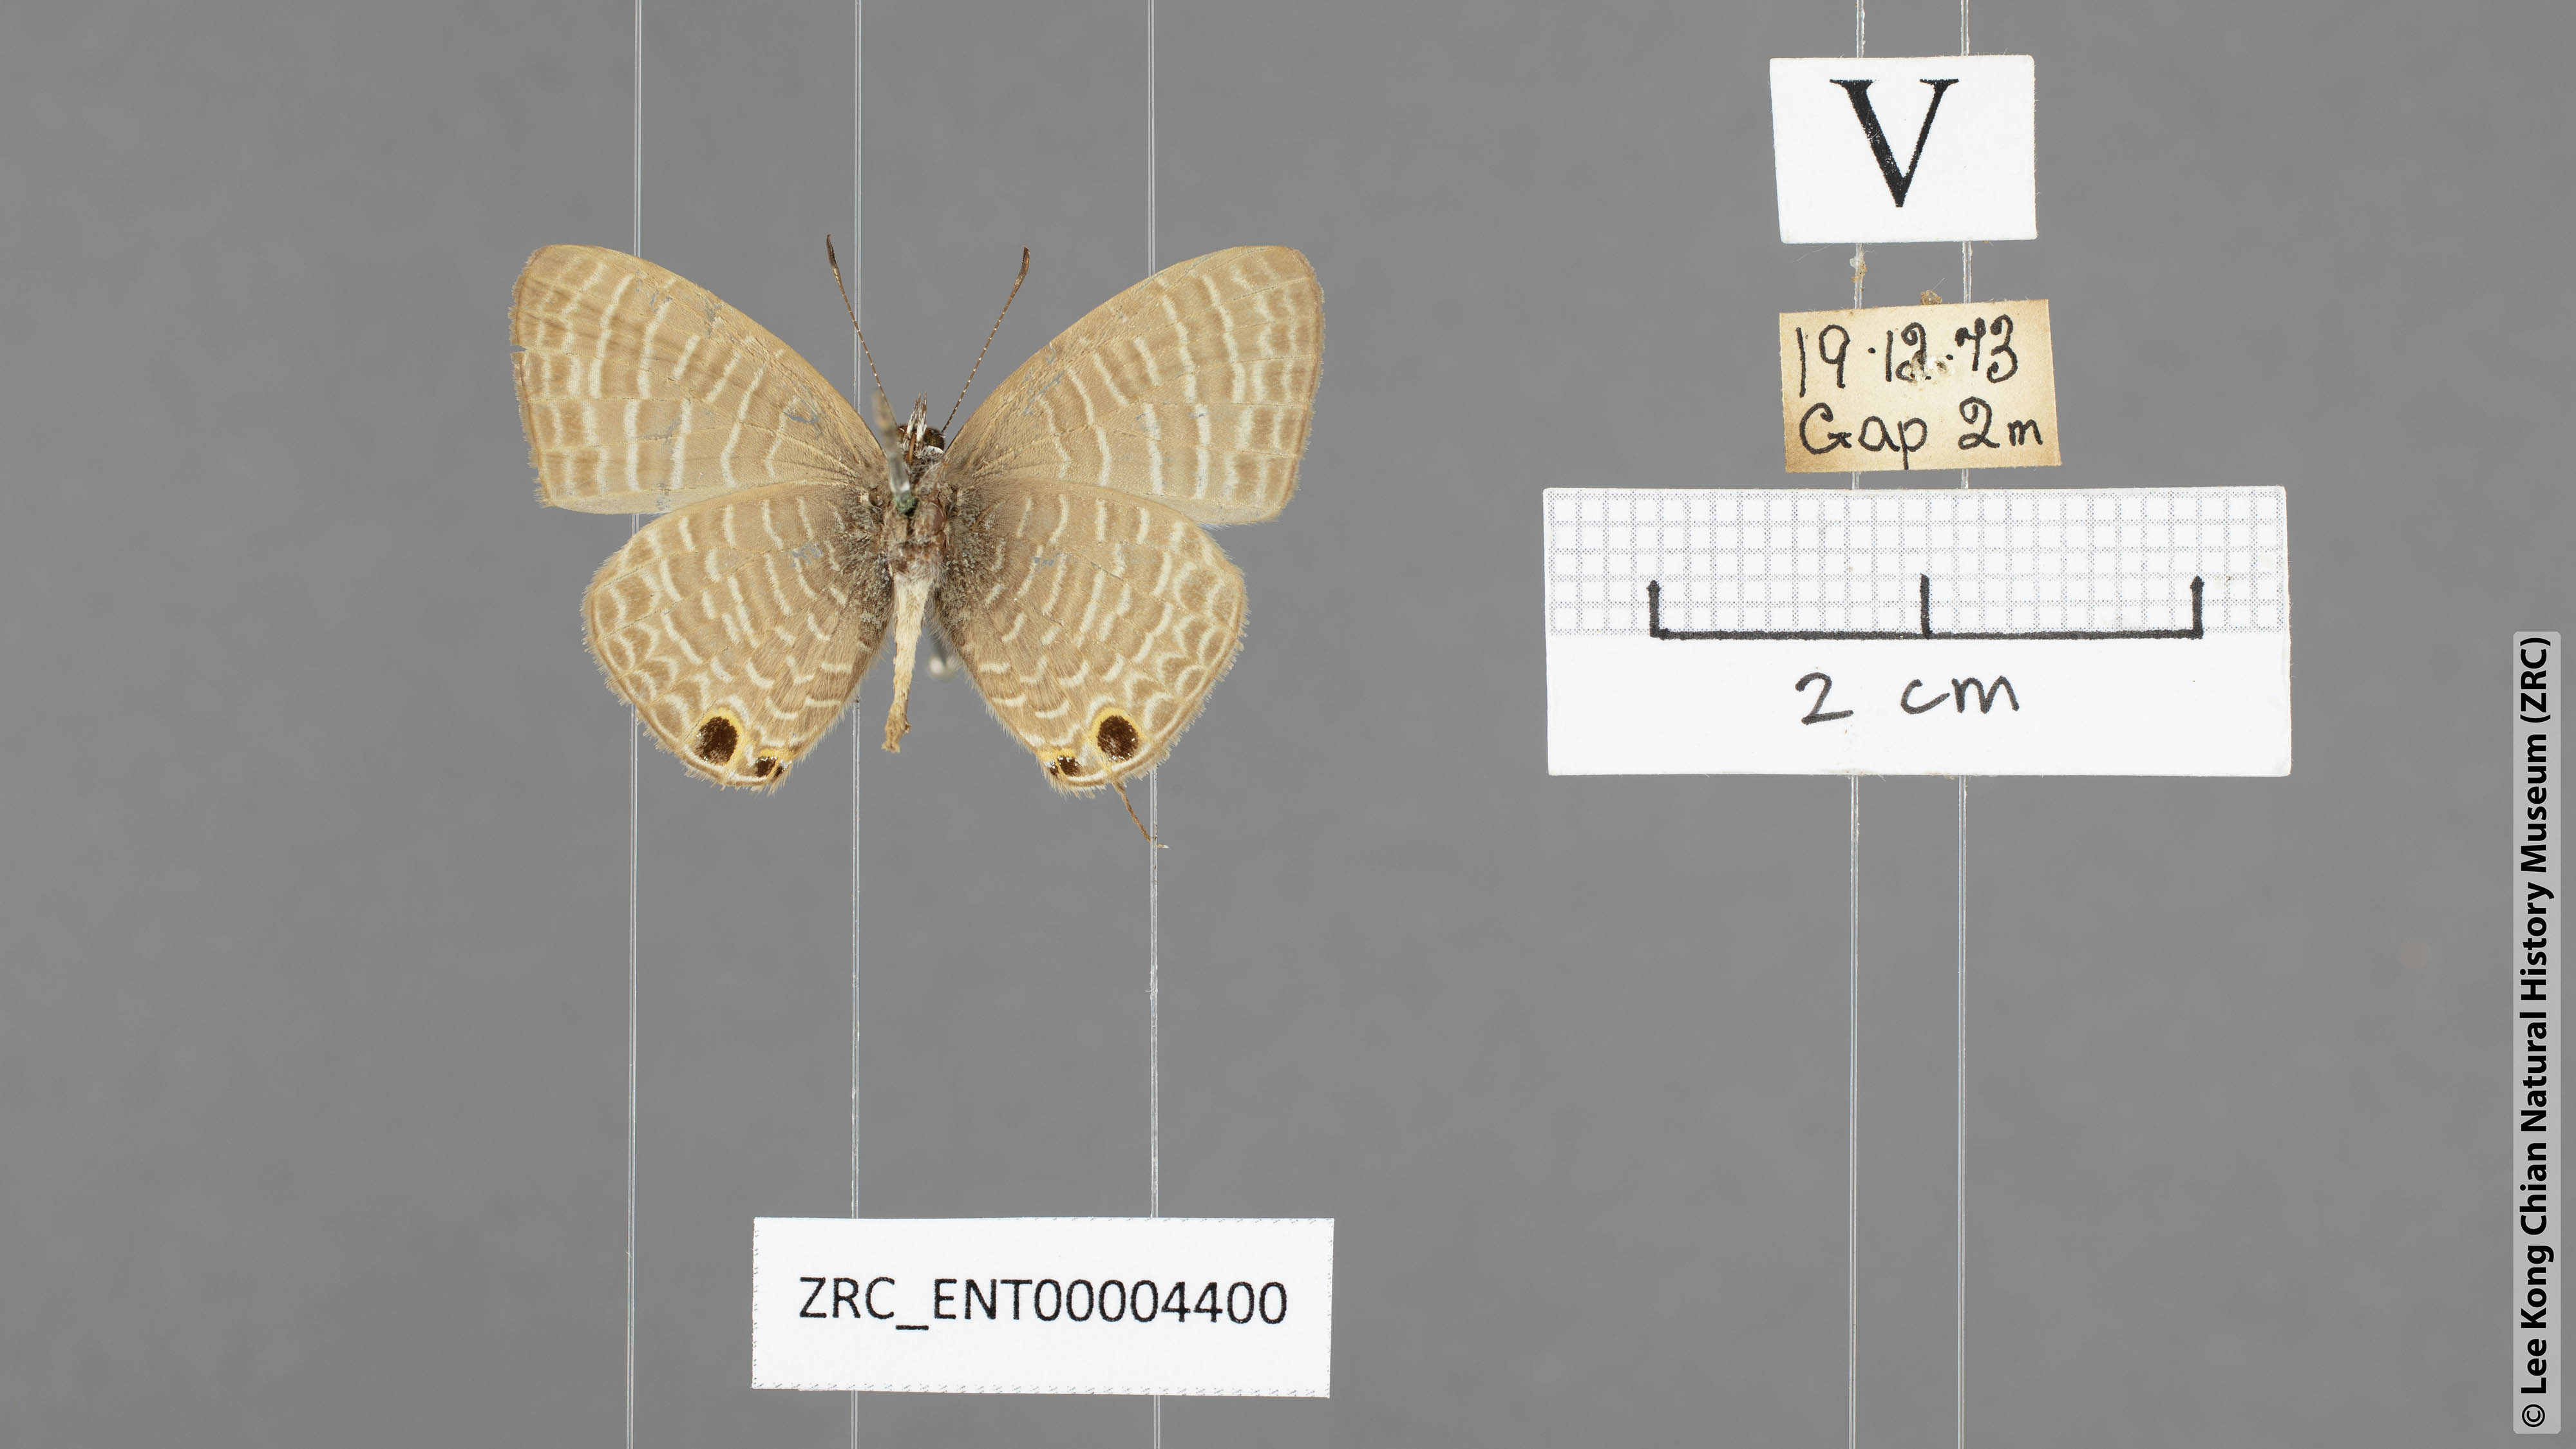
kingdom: Animalia
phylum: Arthropoda
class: Insecta
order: Lepidoptera
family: Lycaenidae
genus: Nacaduba
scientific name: Nacaduba kurava
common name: Transparent 6-line blue
